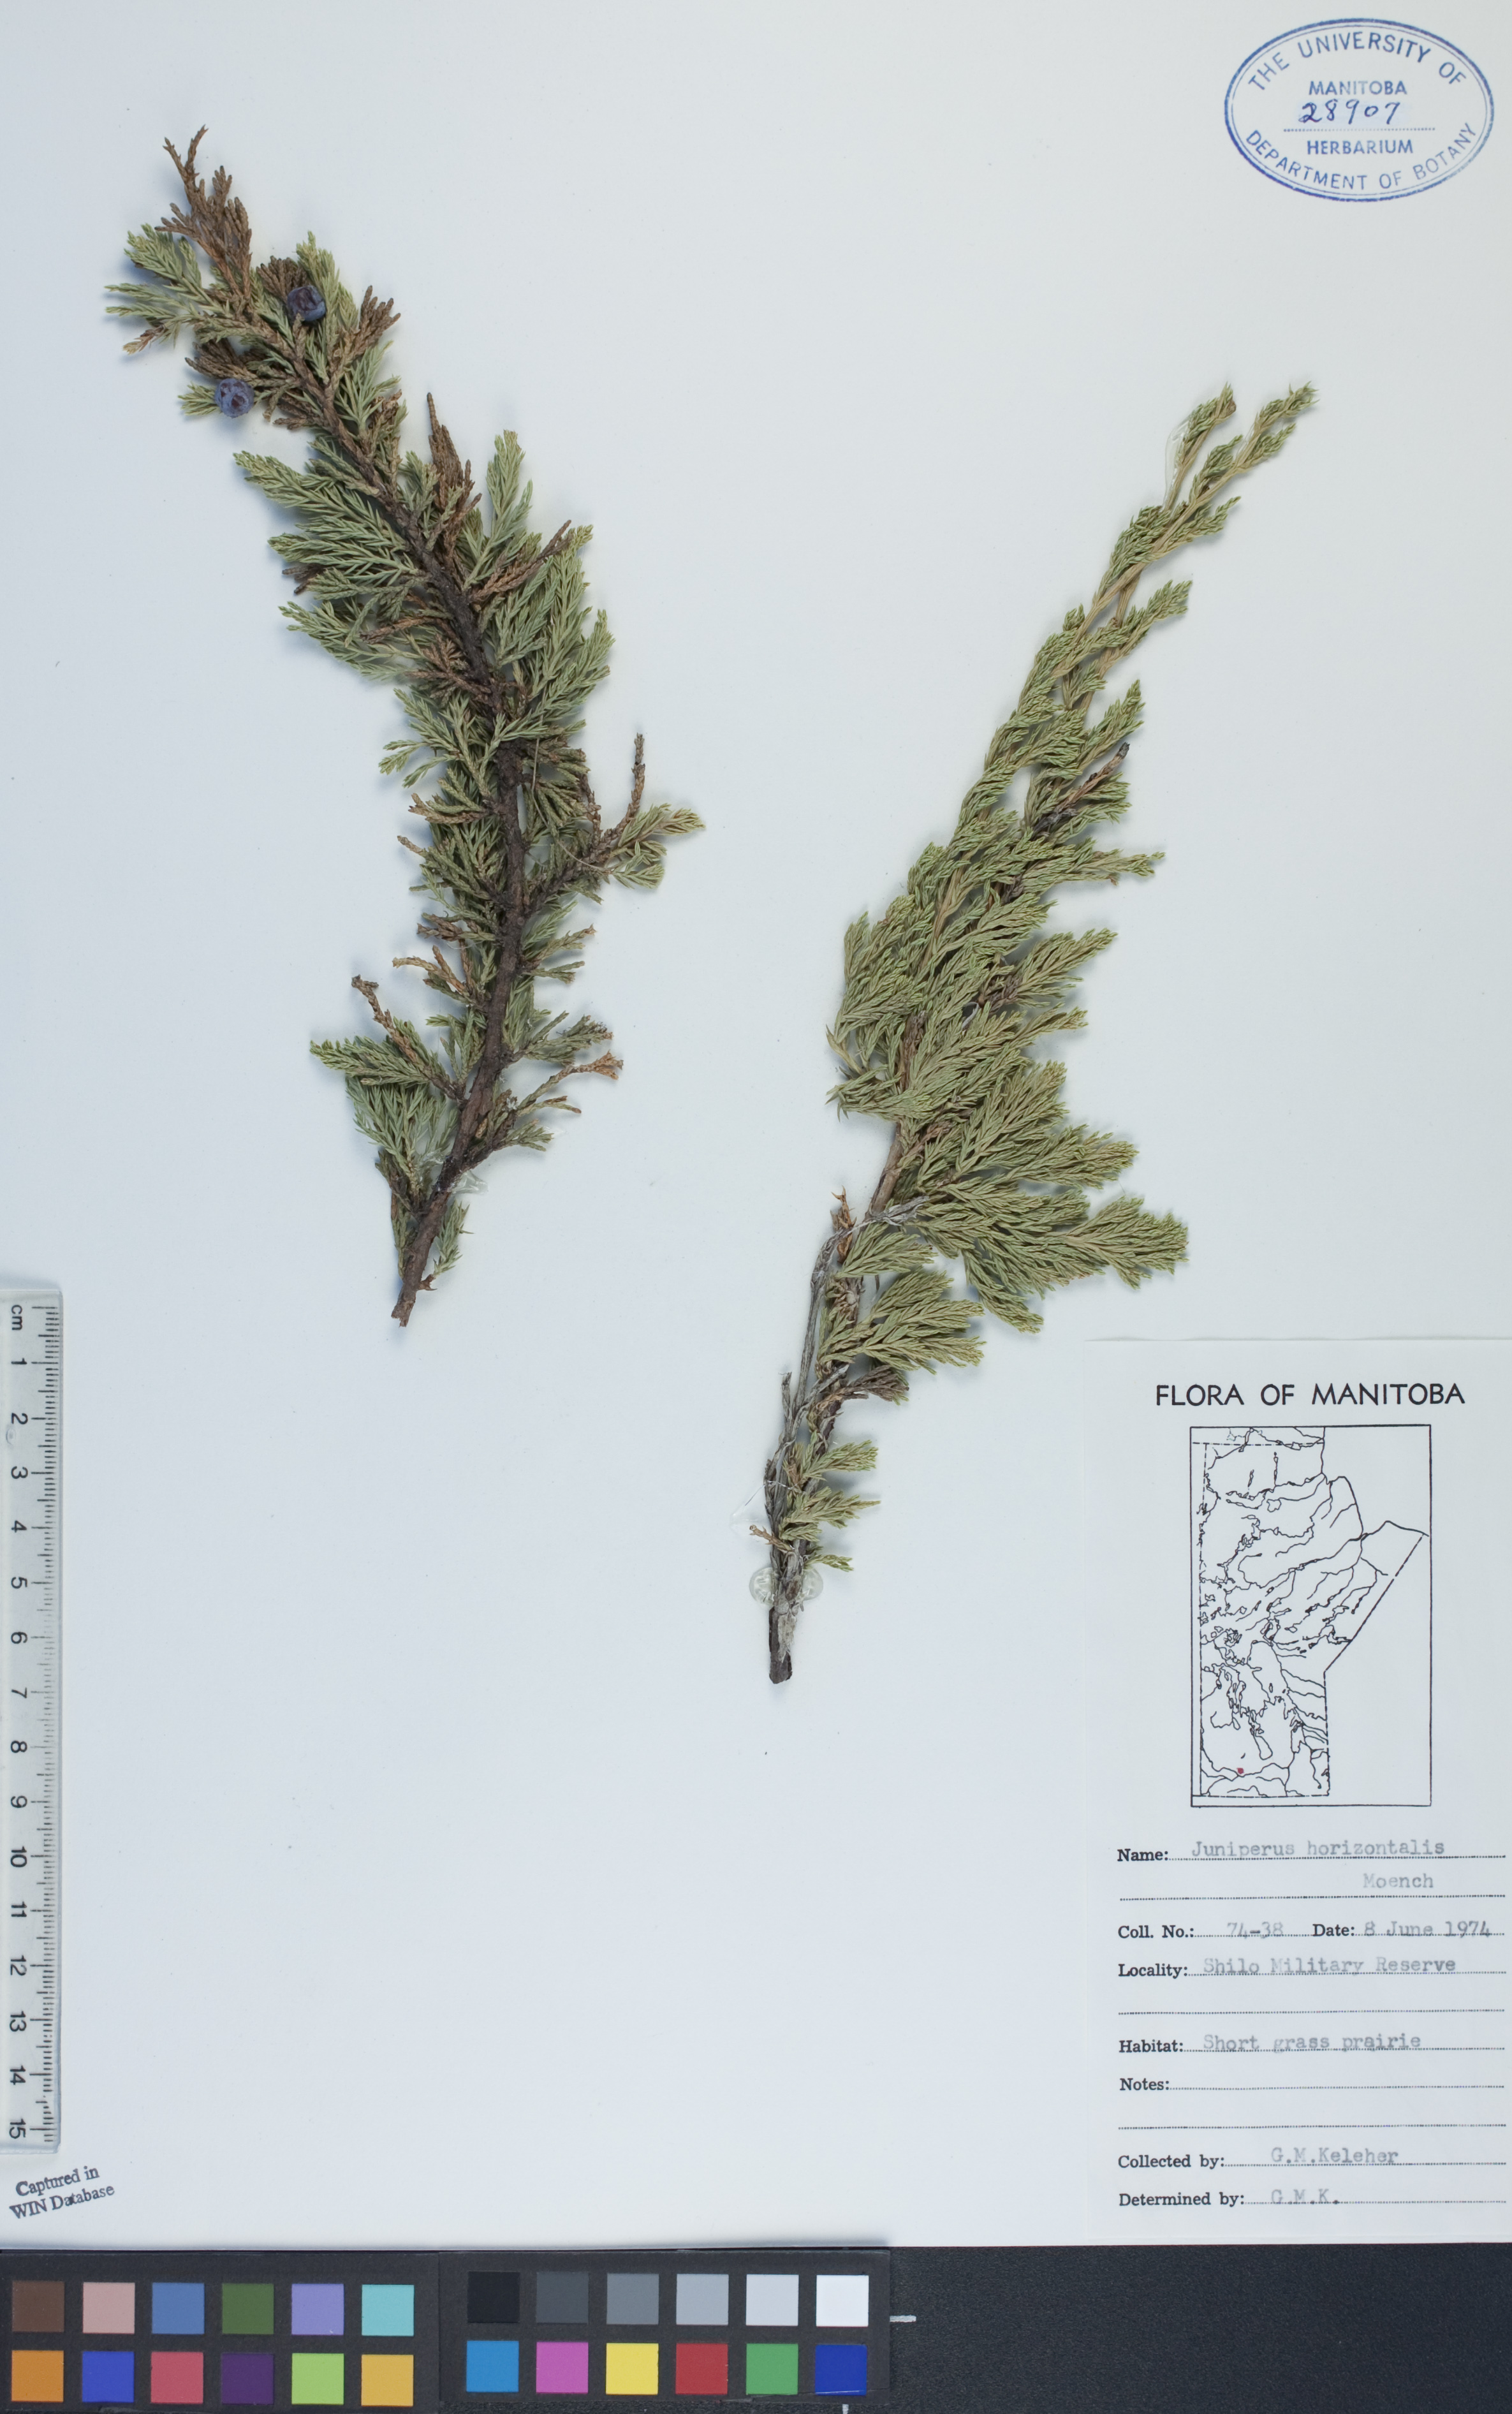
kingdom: Plantae
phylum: Tracheophyta
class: Pinopsida
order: Pinales
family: Cupressaceae
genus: Juniperus
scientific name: Juniperus horizontalis
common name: Creeping juniper
